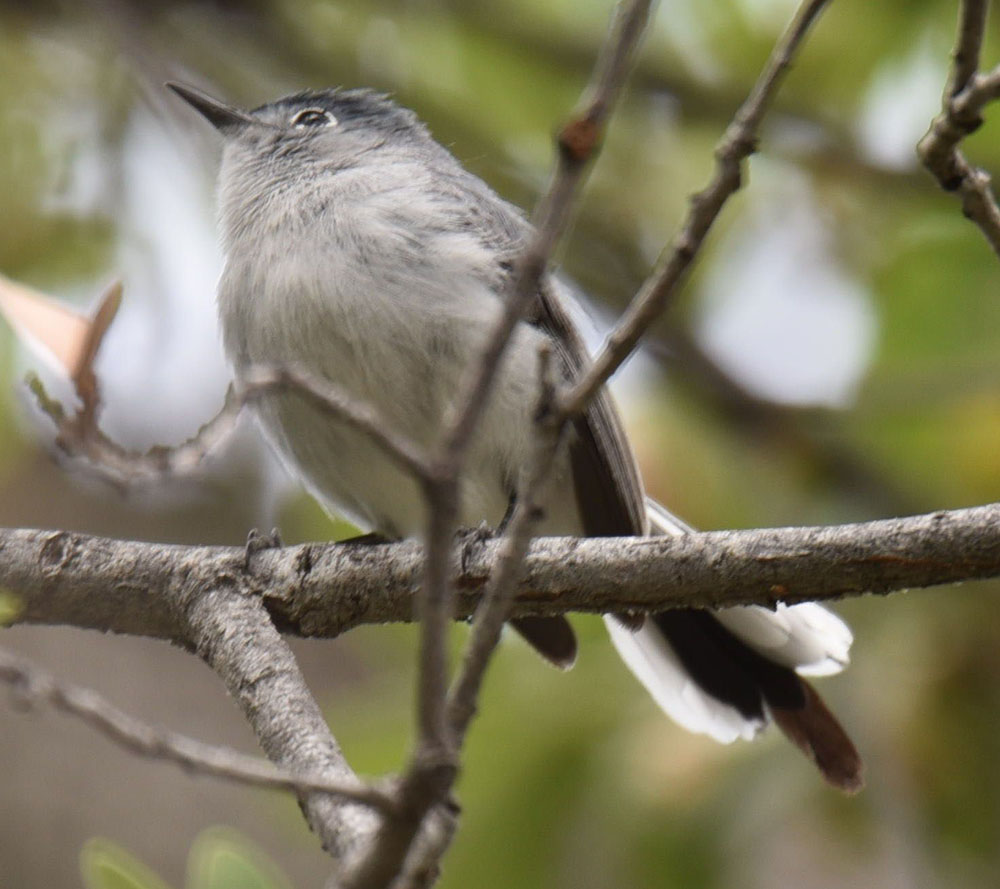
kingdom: Animalia
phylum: Chordata
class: Aves
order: Passeriformes
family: Polioptilidae
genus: Polioptila
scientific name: Polioptila caerulea
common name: Blue-gray gnatcatcher
